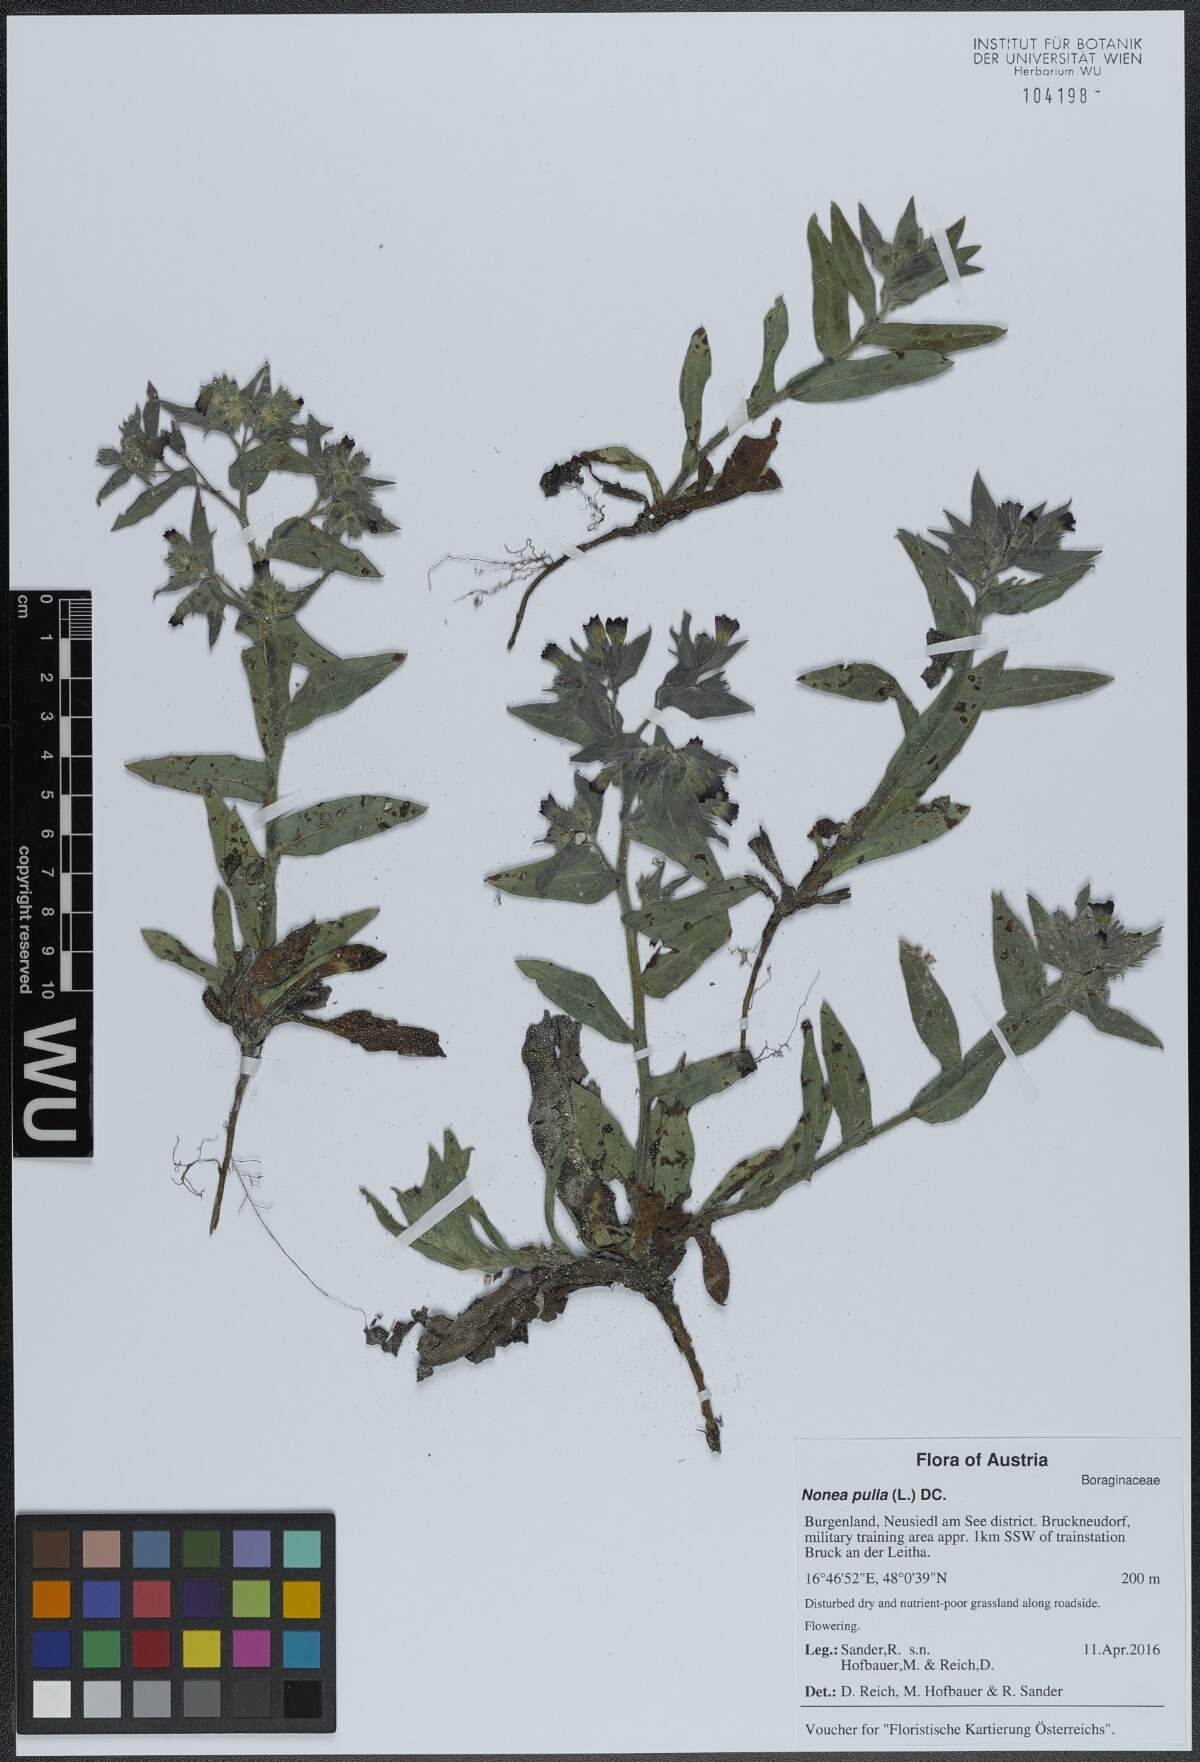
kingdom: Plantae
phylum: Tracheophyta
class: Magnoliopsida
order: Boraginales
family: Boraginaceae
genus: Nonea
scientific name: Nonea pulla
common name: Brown nonea
